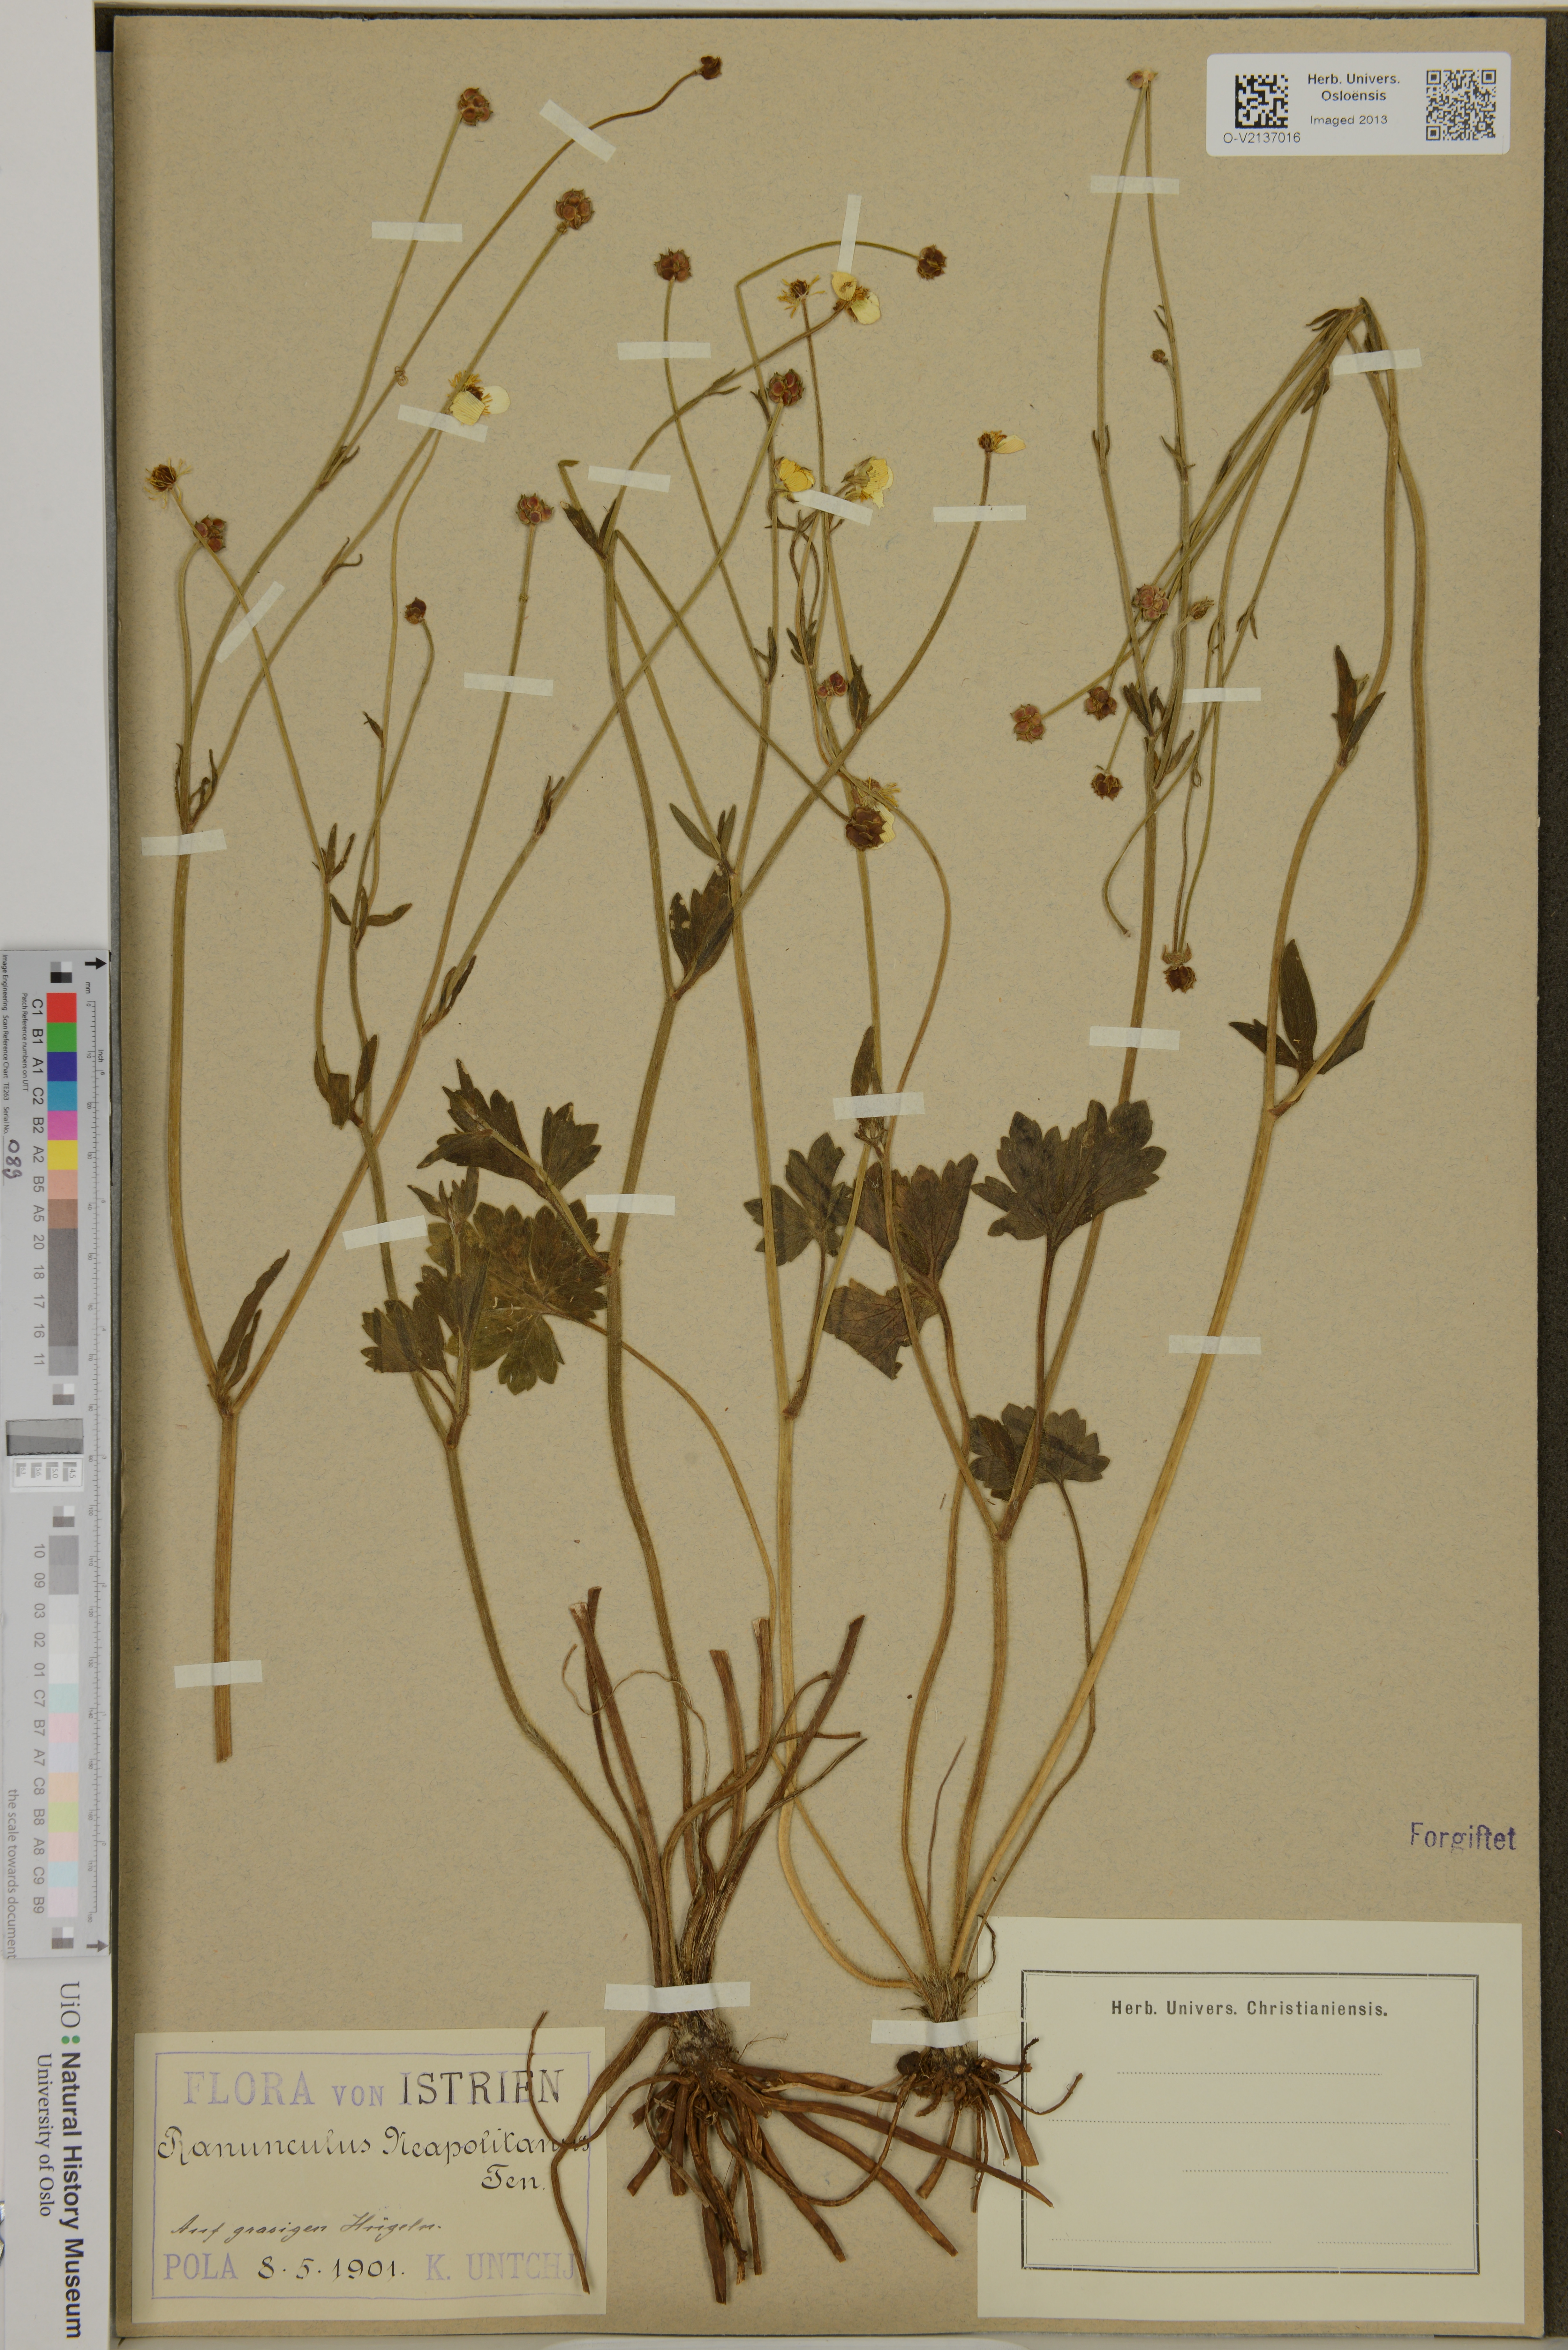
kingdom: Plantae
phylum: Tracheophyta
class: Magnoliopsida
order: Ranunculales
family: Ranunculaceae
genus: Ranunculus
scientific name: Ranunculus neapolitanus
